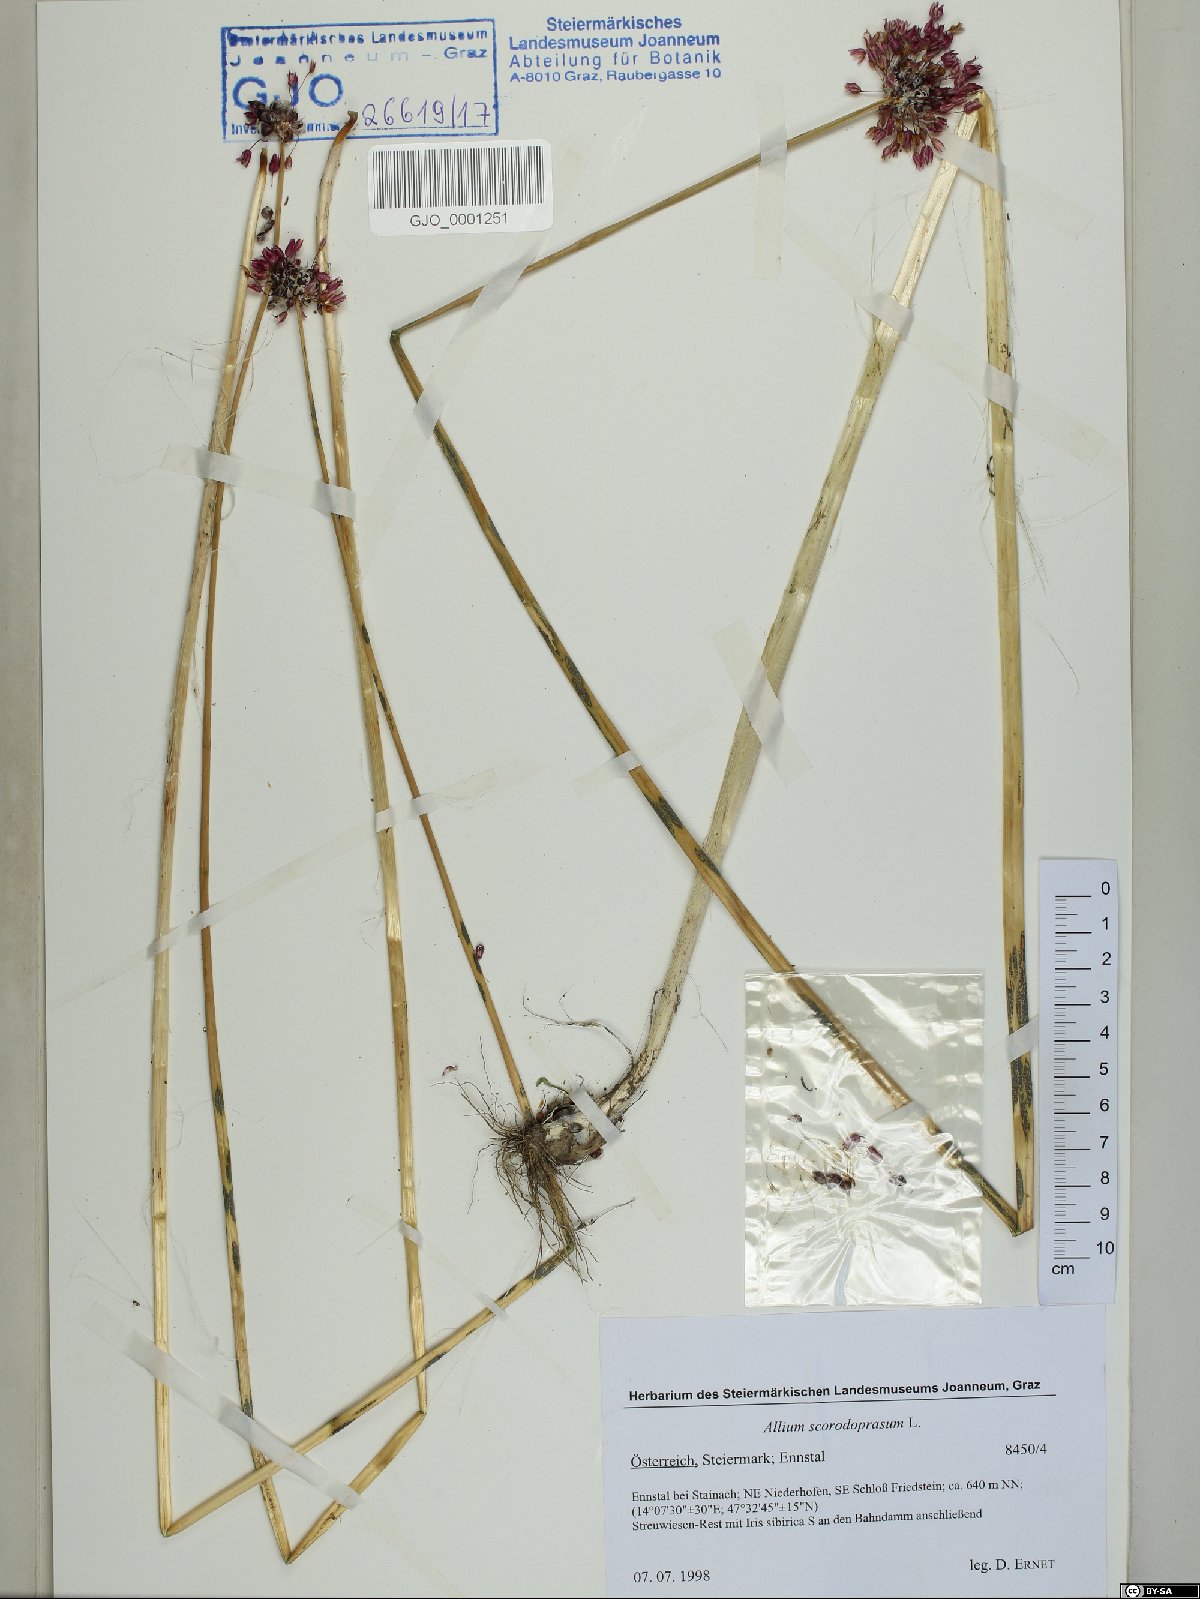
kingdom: Plantae
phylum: Tracheophyta
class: Liliopsida
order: Asparagales
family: Amaryllidaceae
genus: Allium
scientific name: Allium scorodoprasum
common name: Sand leek
